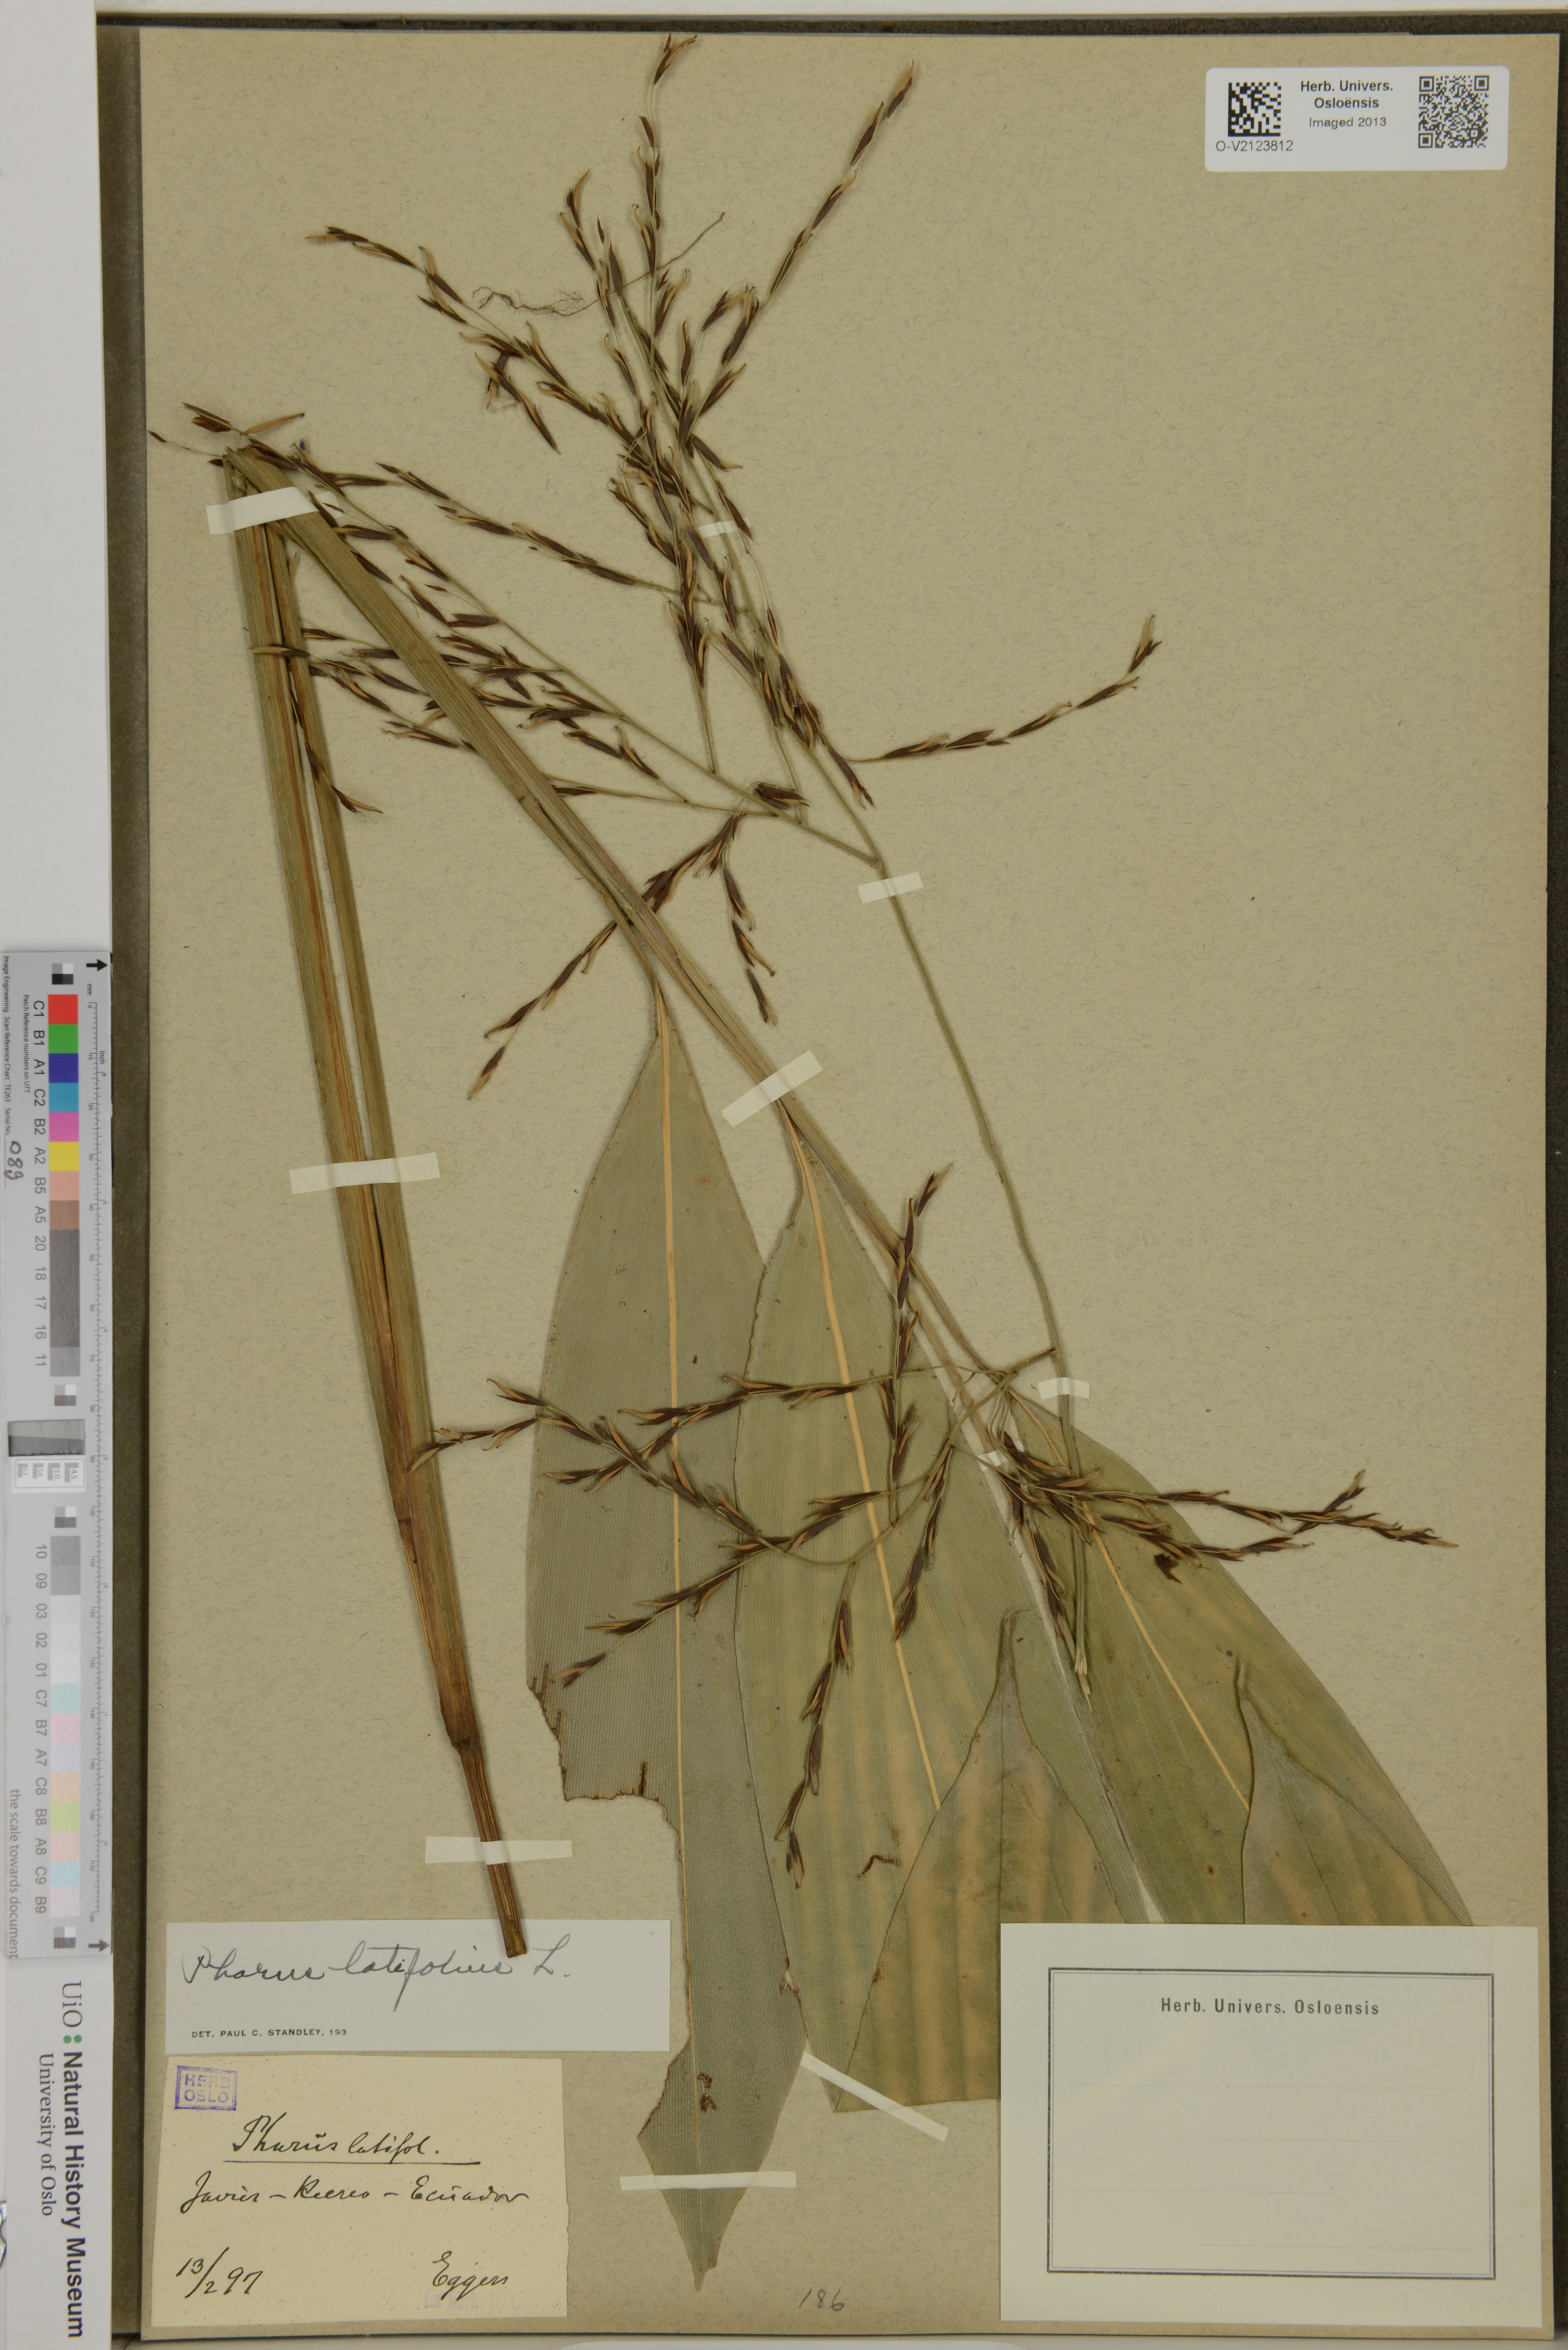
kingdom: Plantae
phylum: Tracheophyta
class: Liliopsida
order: Poales
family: Poaceae
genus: Pharus
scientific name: Pharus latifolius
